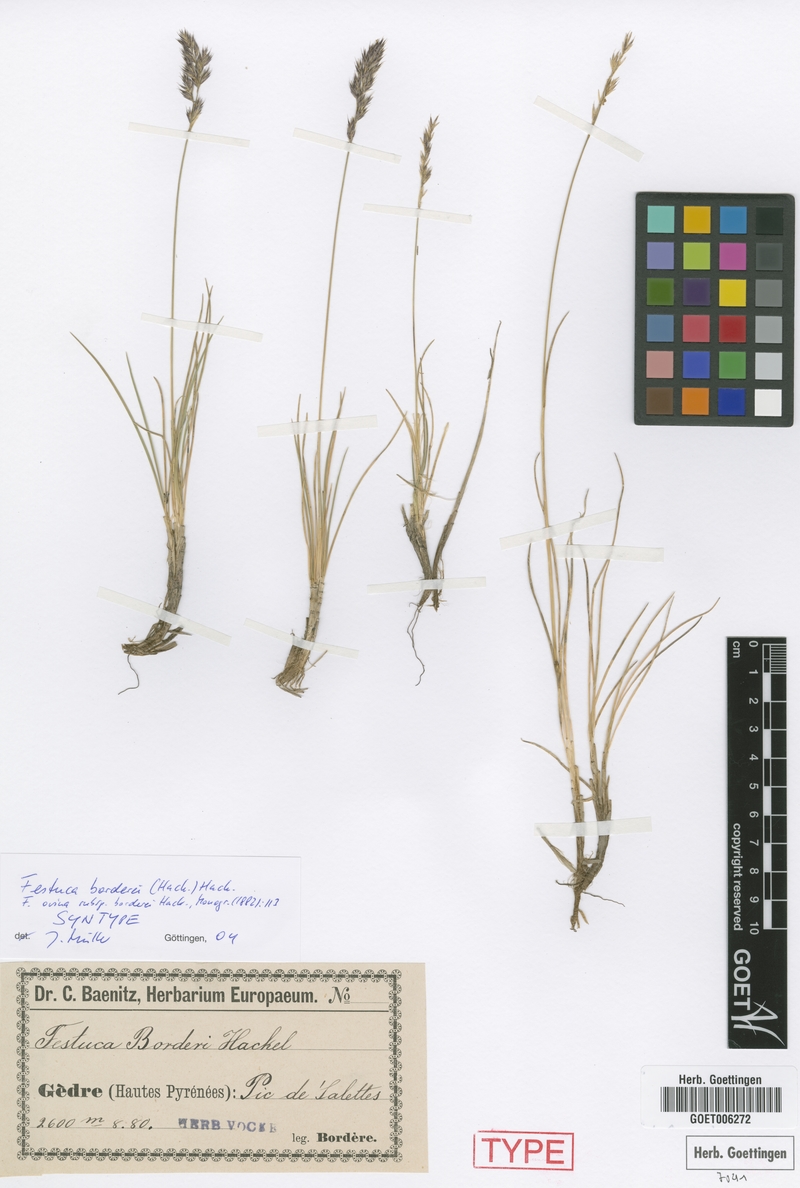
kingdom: Plantae
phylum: Tracheophyta
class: Liliopsida
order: Poales
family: Poaceae
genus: Festuca
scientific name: Festuca borderii
